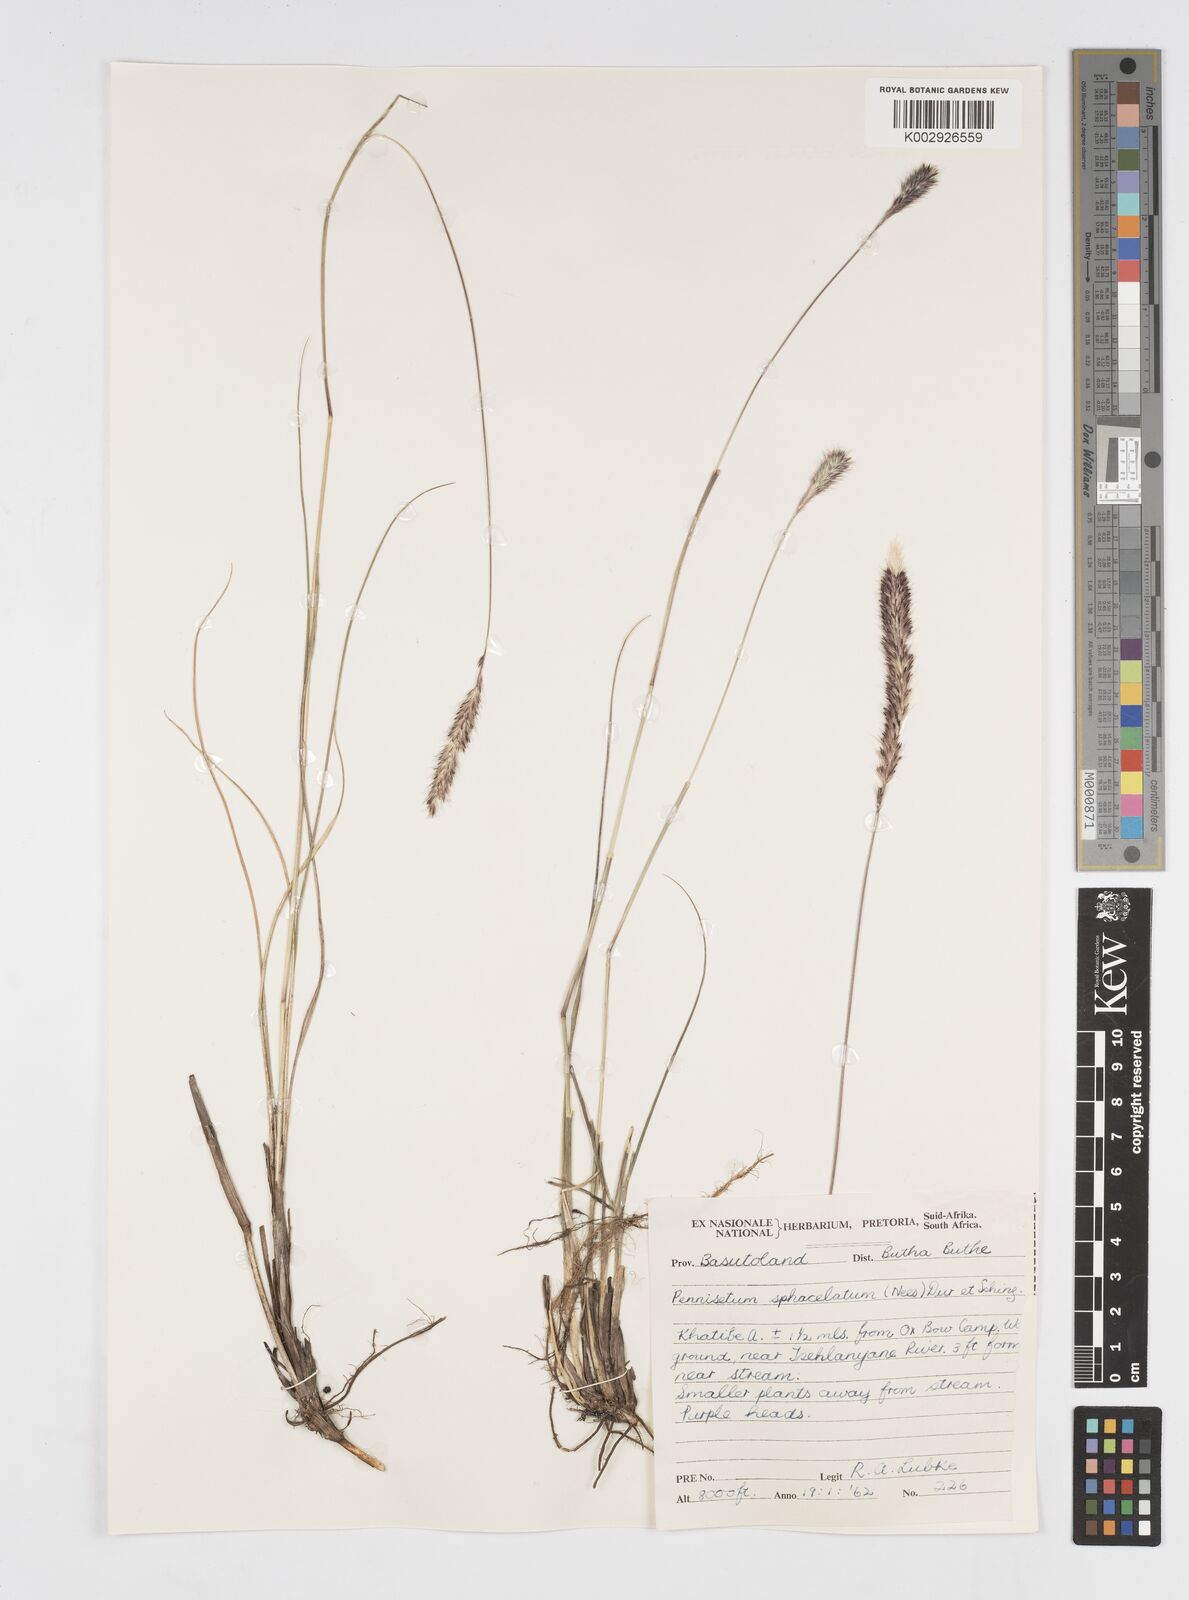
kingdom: Plantae
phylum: Tracheophyta
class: Liliopsida
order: Poales
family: Poaceae
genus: Cenchrus
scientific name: Cenchrus sphacelatus
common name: Bulgras
